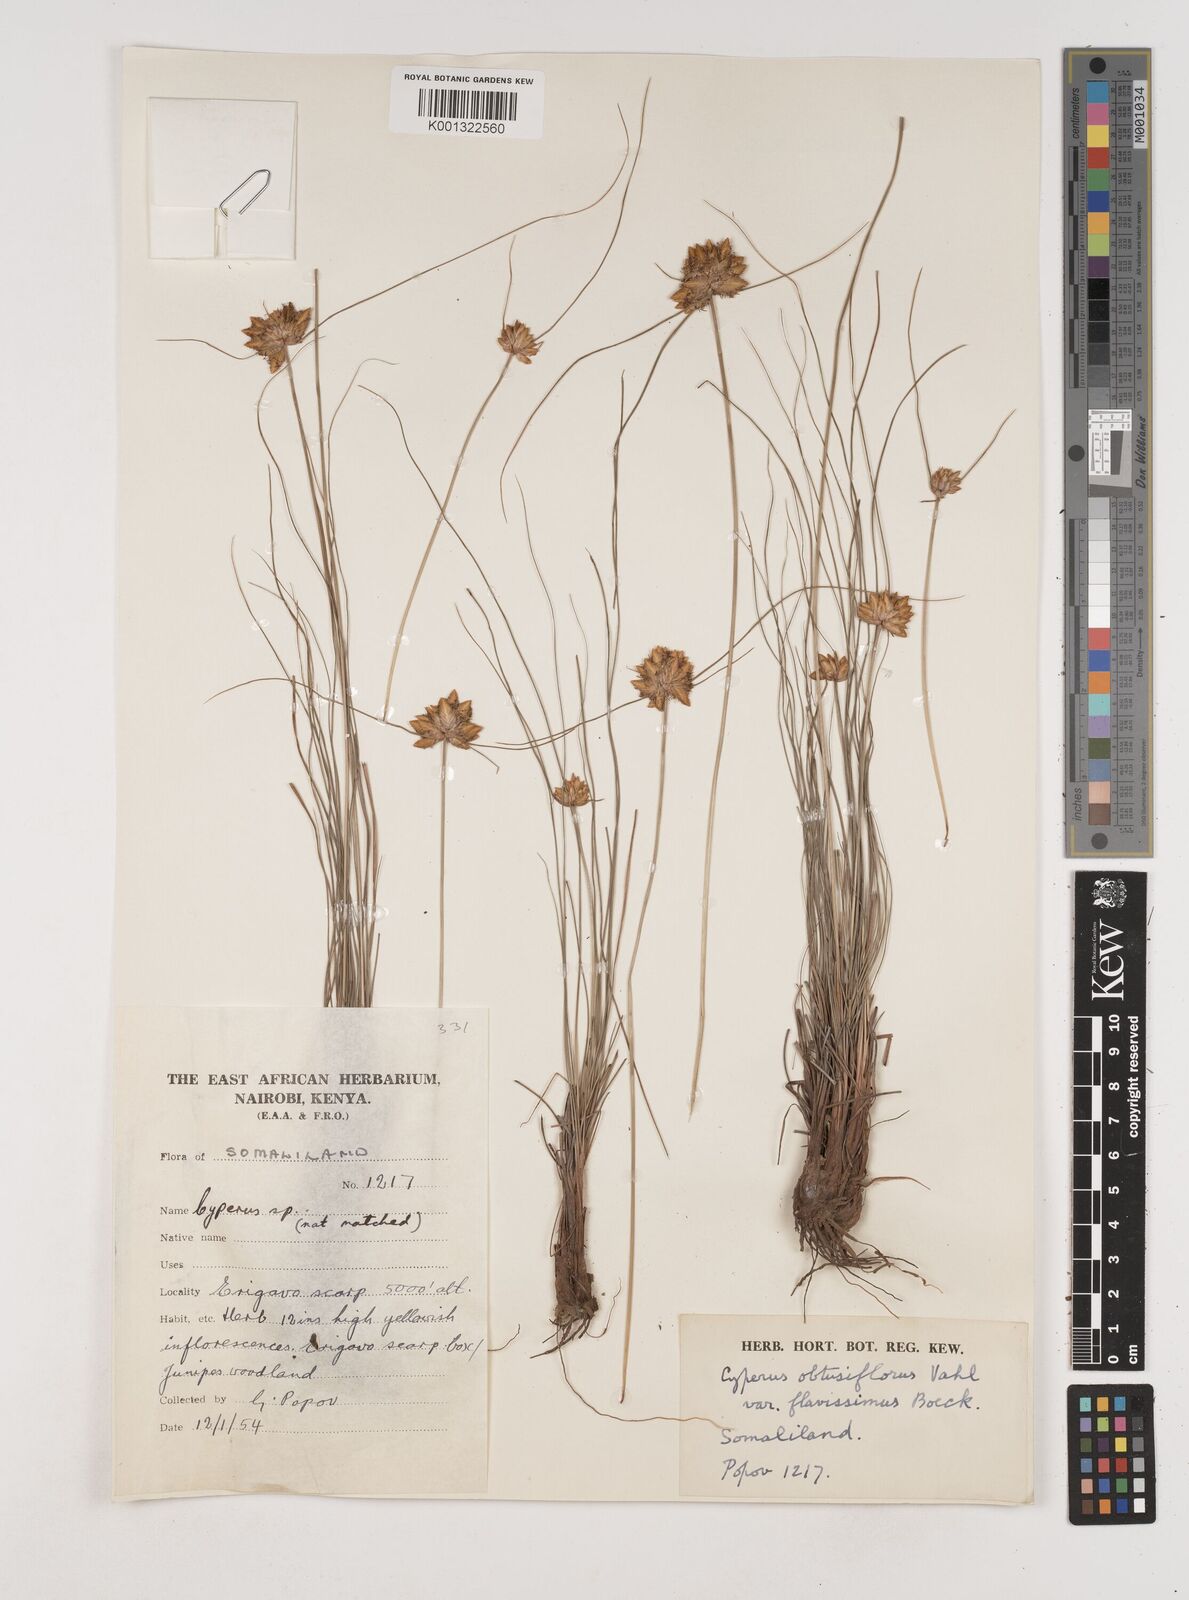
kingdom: Plantae
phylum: Tracheophyta
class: Liliopsida
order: Poales
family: Cyperaceae
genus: Cyperus
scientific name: Cyperus niveus
